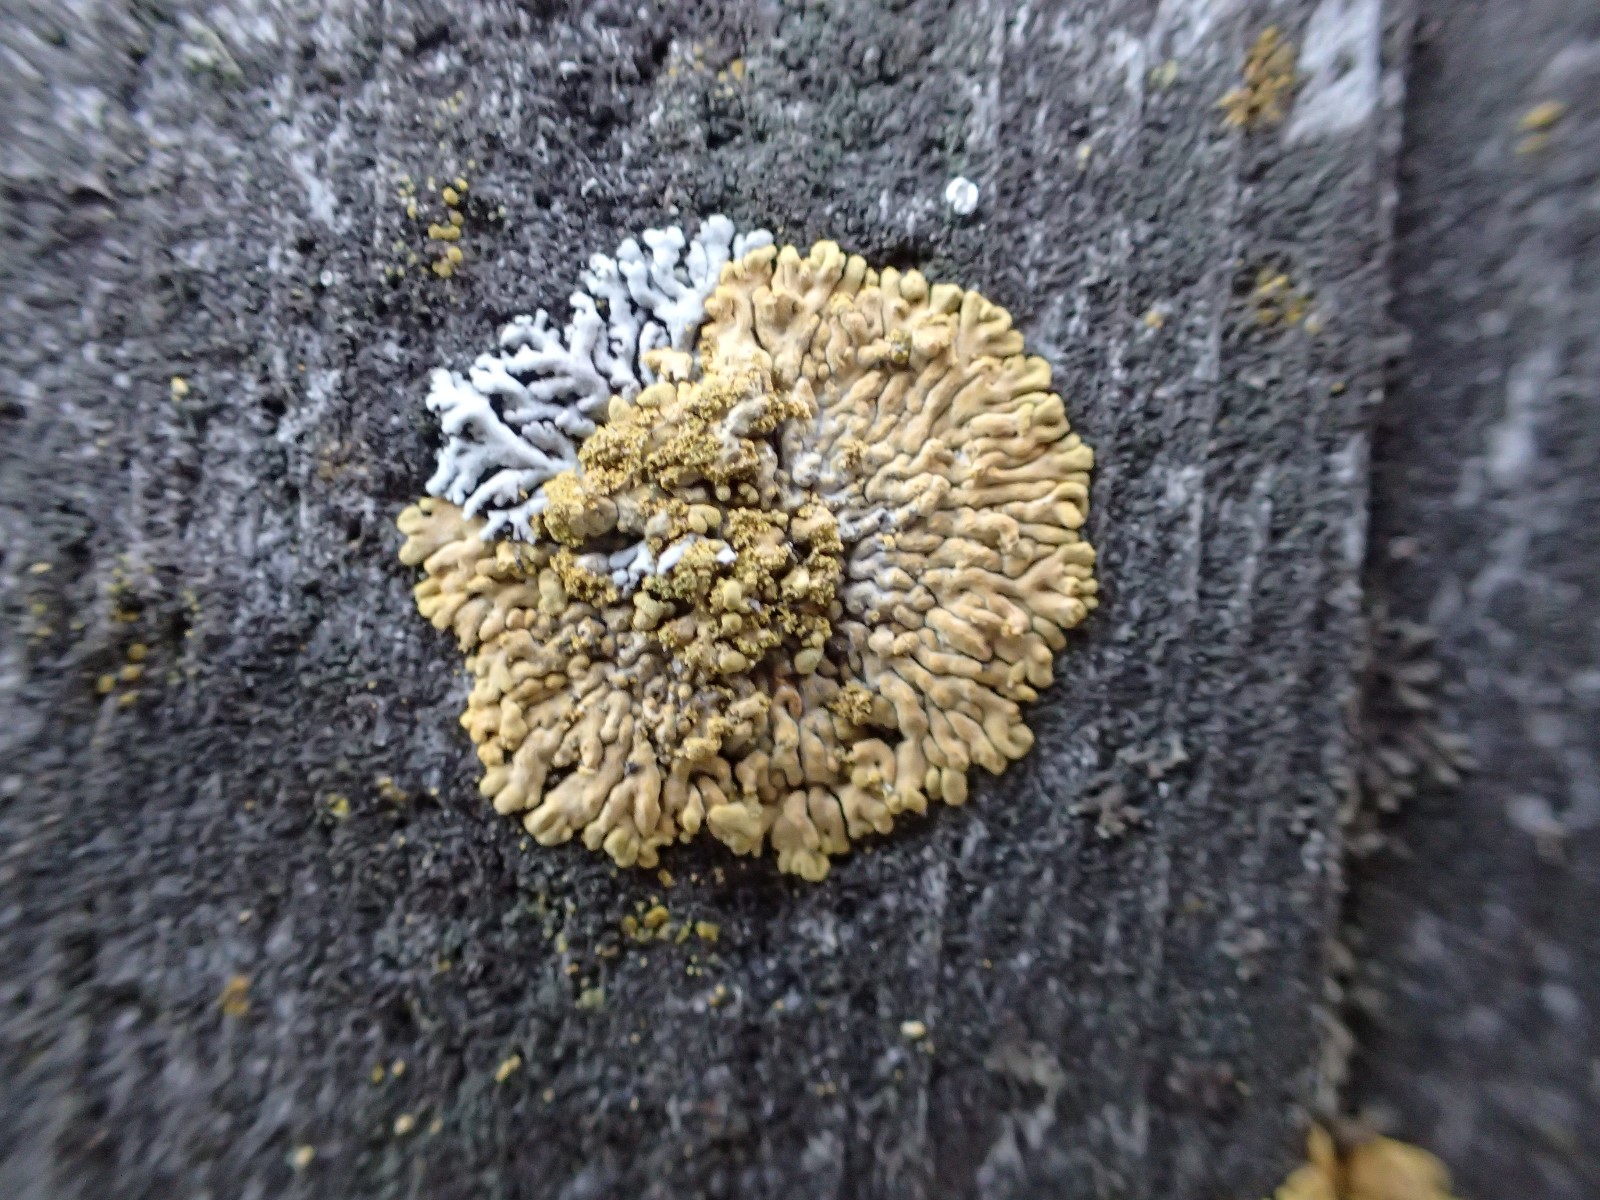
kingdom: Fungi
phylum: Ascomycota
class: Lecanoromycetes
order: Teloschistales
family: Teloschistaceae
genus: Calogaya
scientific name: Calogaya decipiens
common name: knudret orangelav
